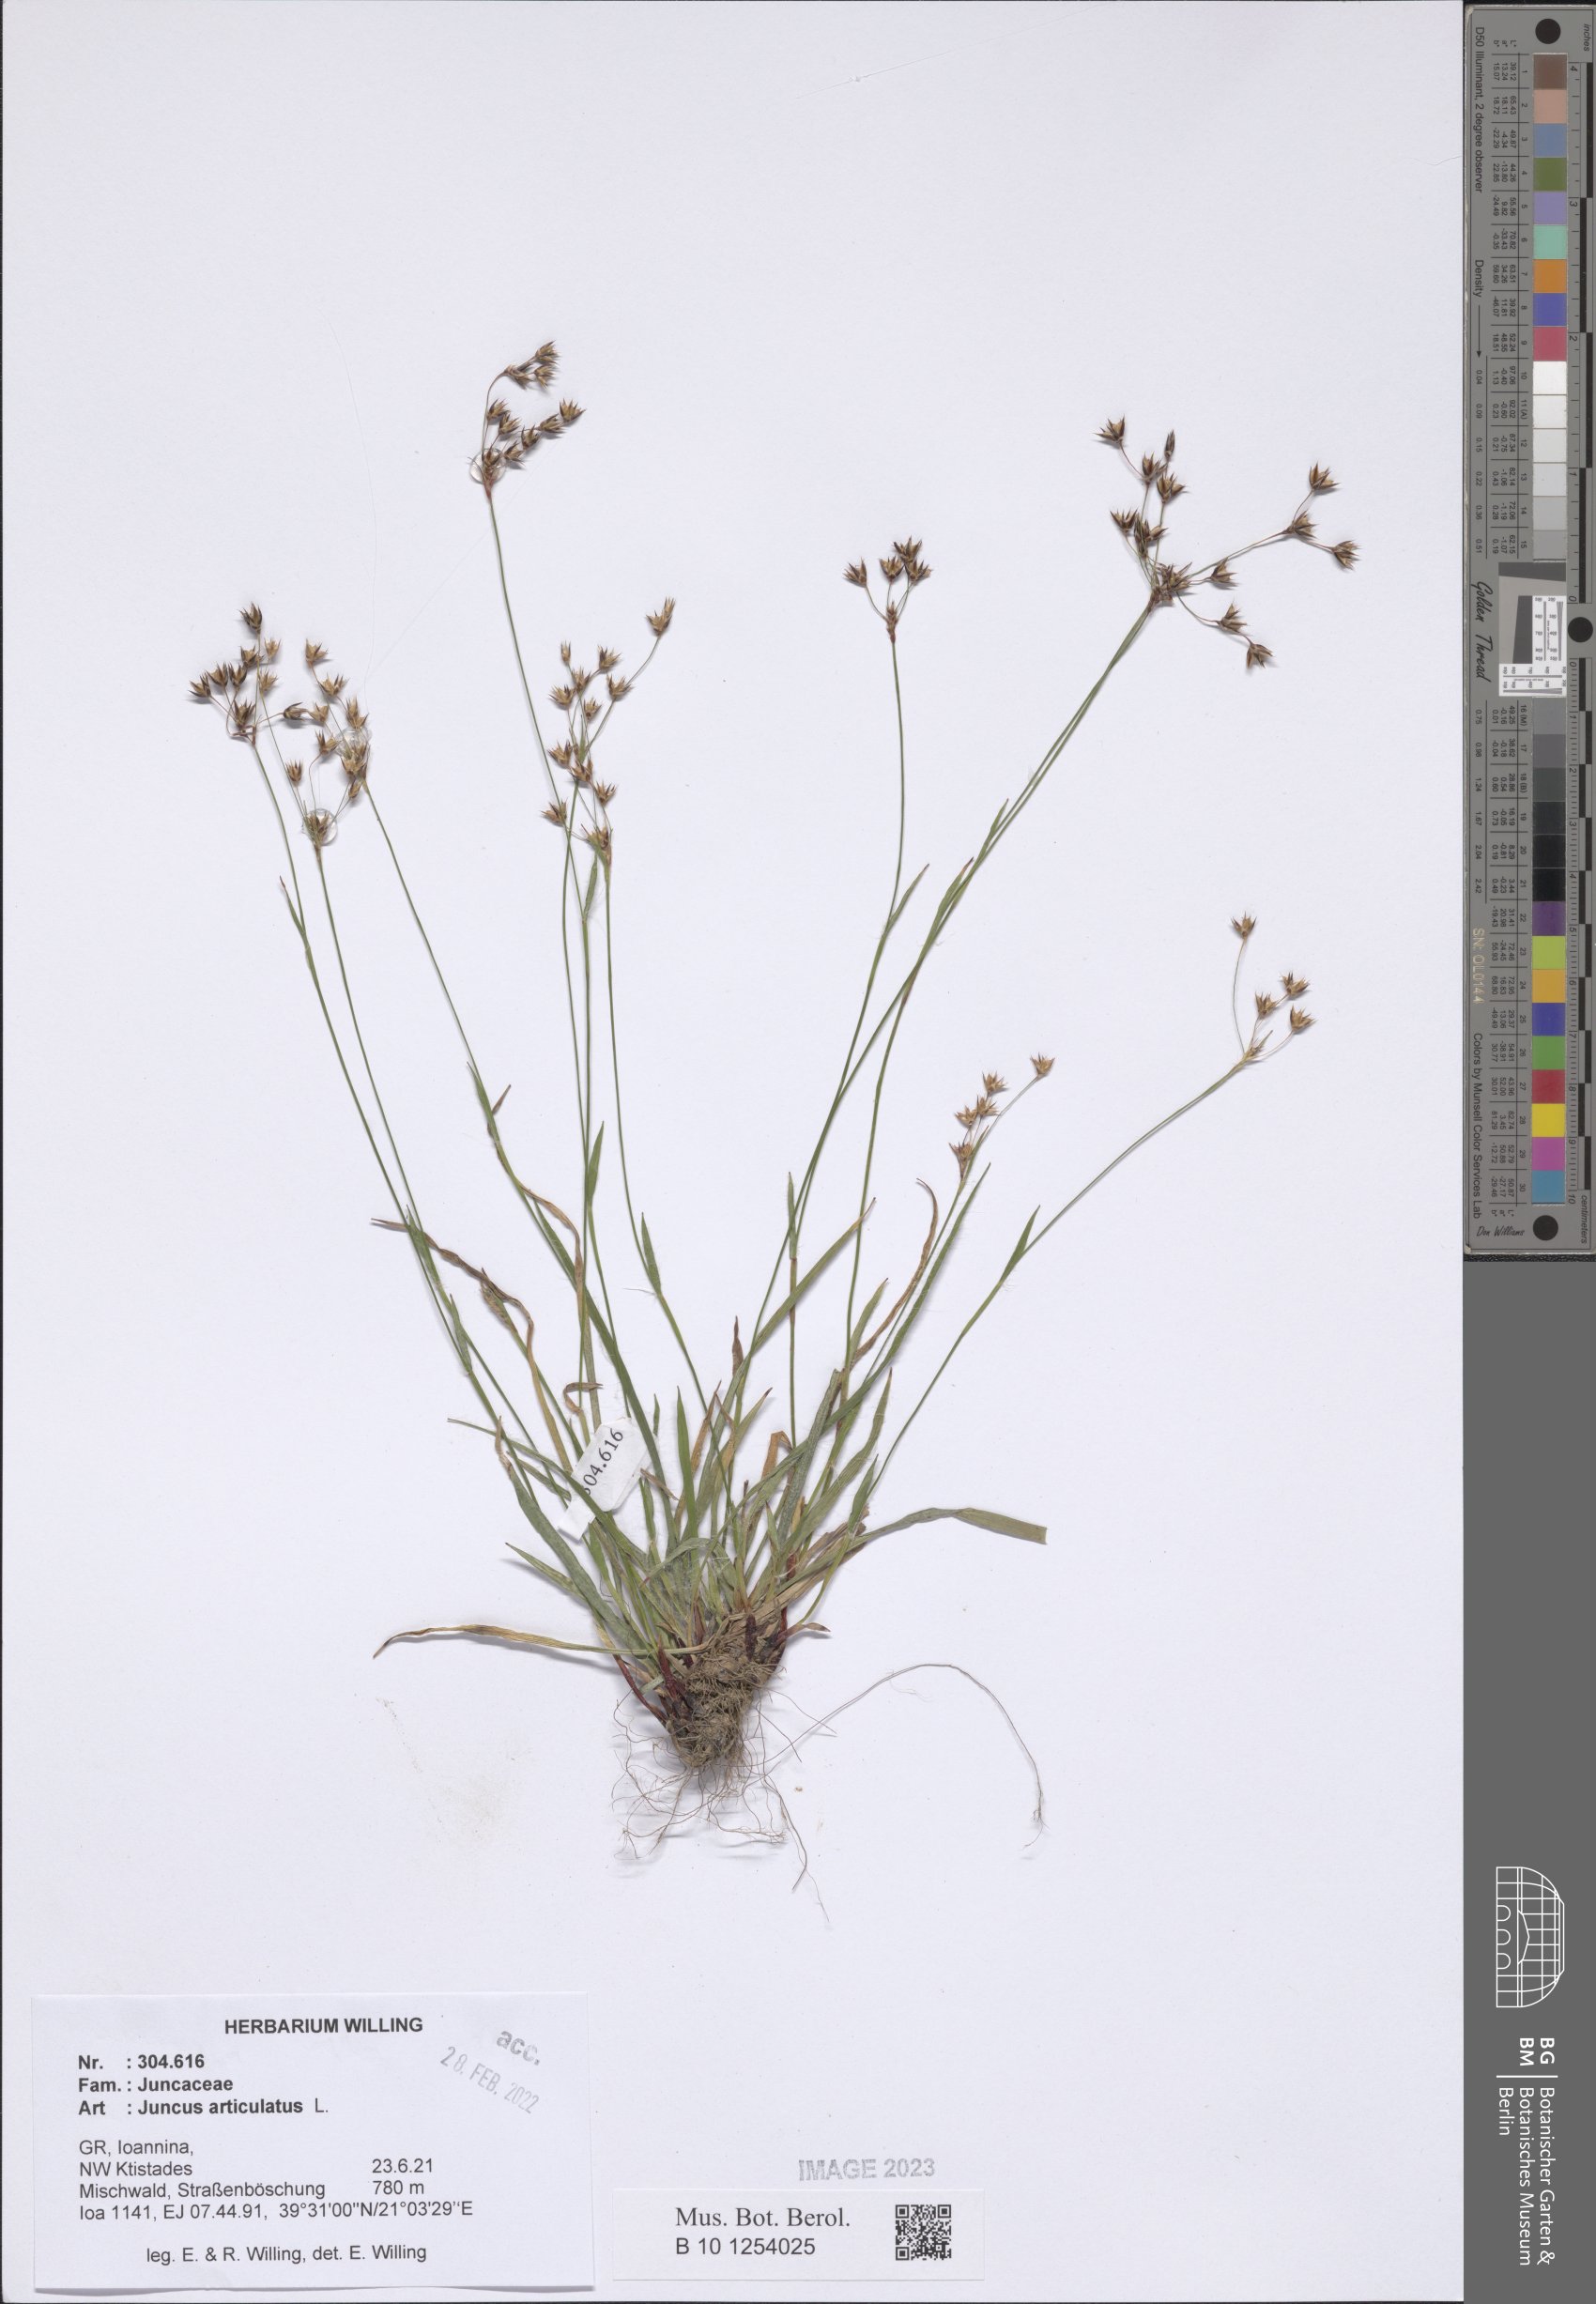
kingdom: Plantae
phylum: Tracheophyta
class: Liliopsida
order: Poales
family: Juncaceae
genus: Juncus
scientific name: Juncus articulatus
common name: Jointed rush
